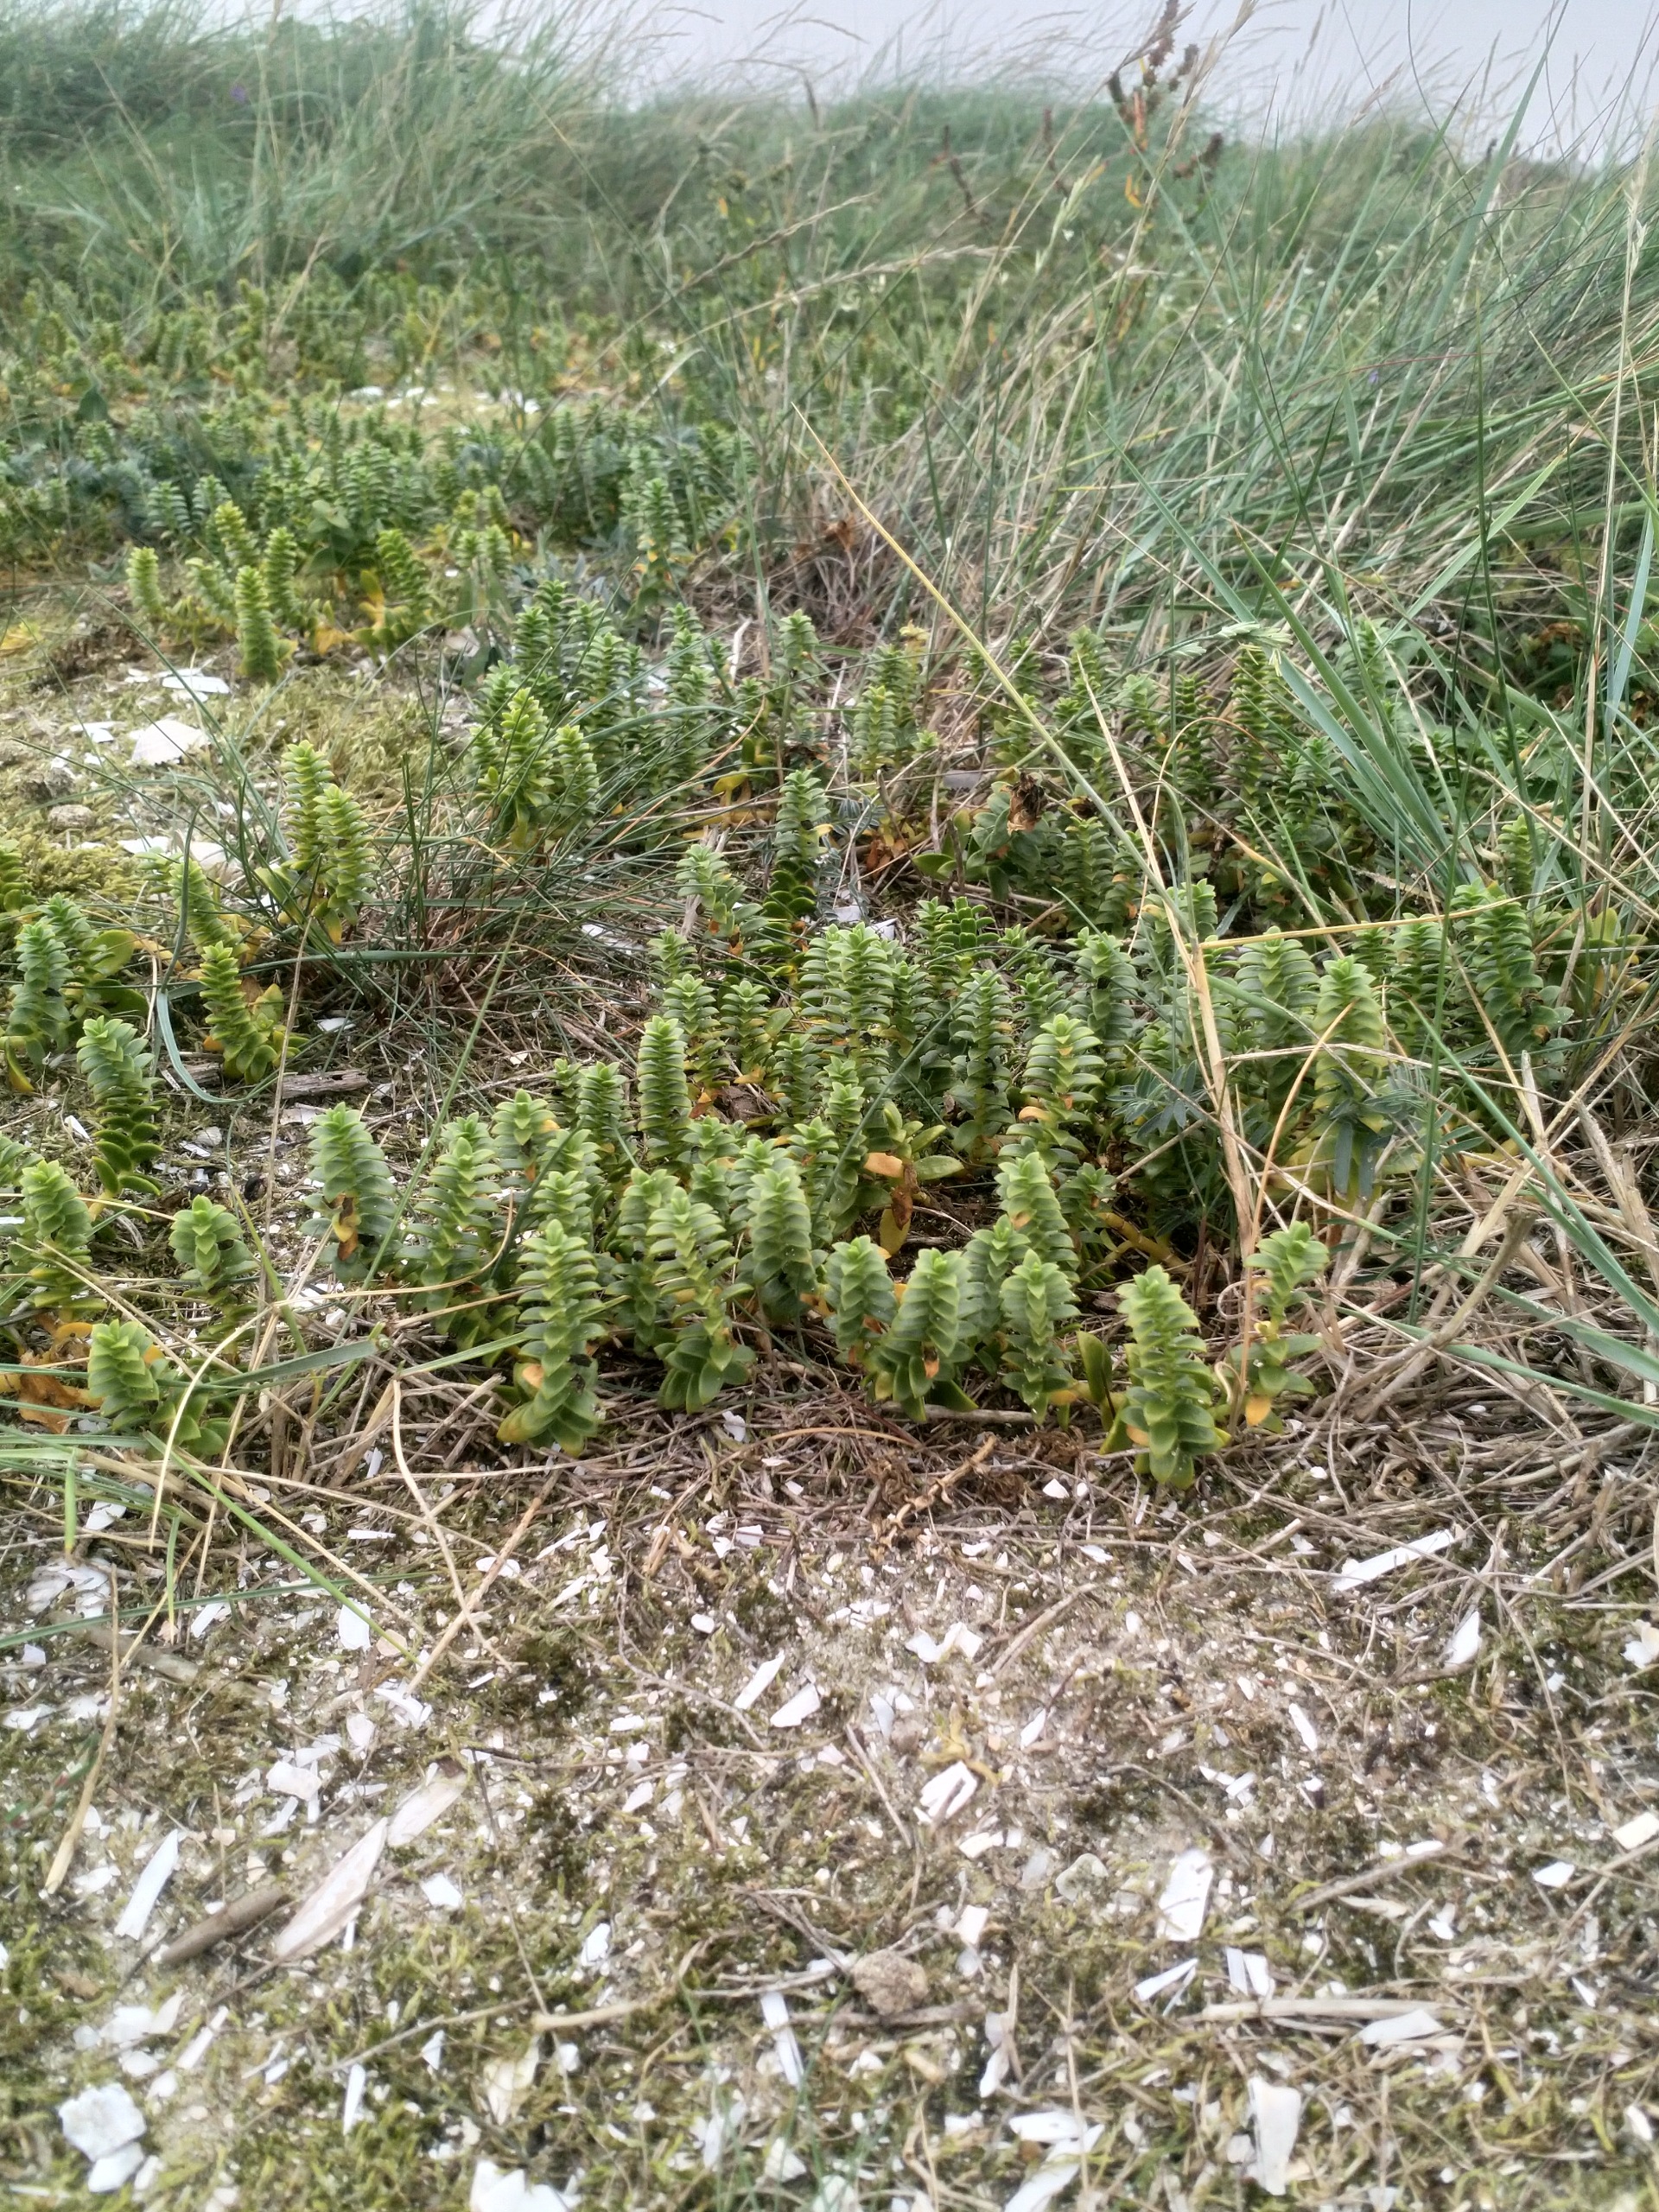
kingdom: Plantae
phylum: Tracheophyta
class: Magnoliopsida
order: Caryophyllales
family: Caryophyllaceae
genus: Honckenya
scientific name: Honckenya peploides
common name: Strandarve
